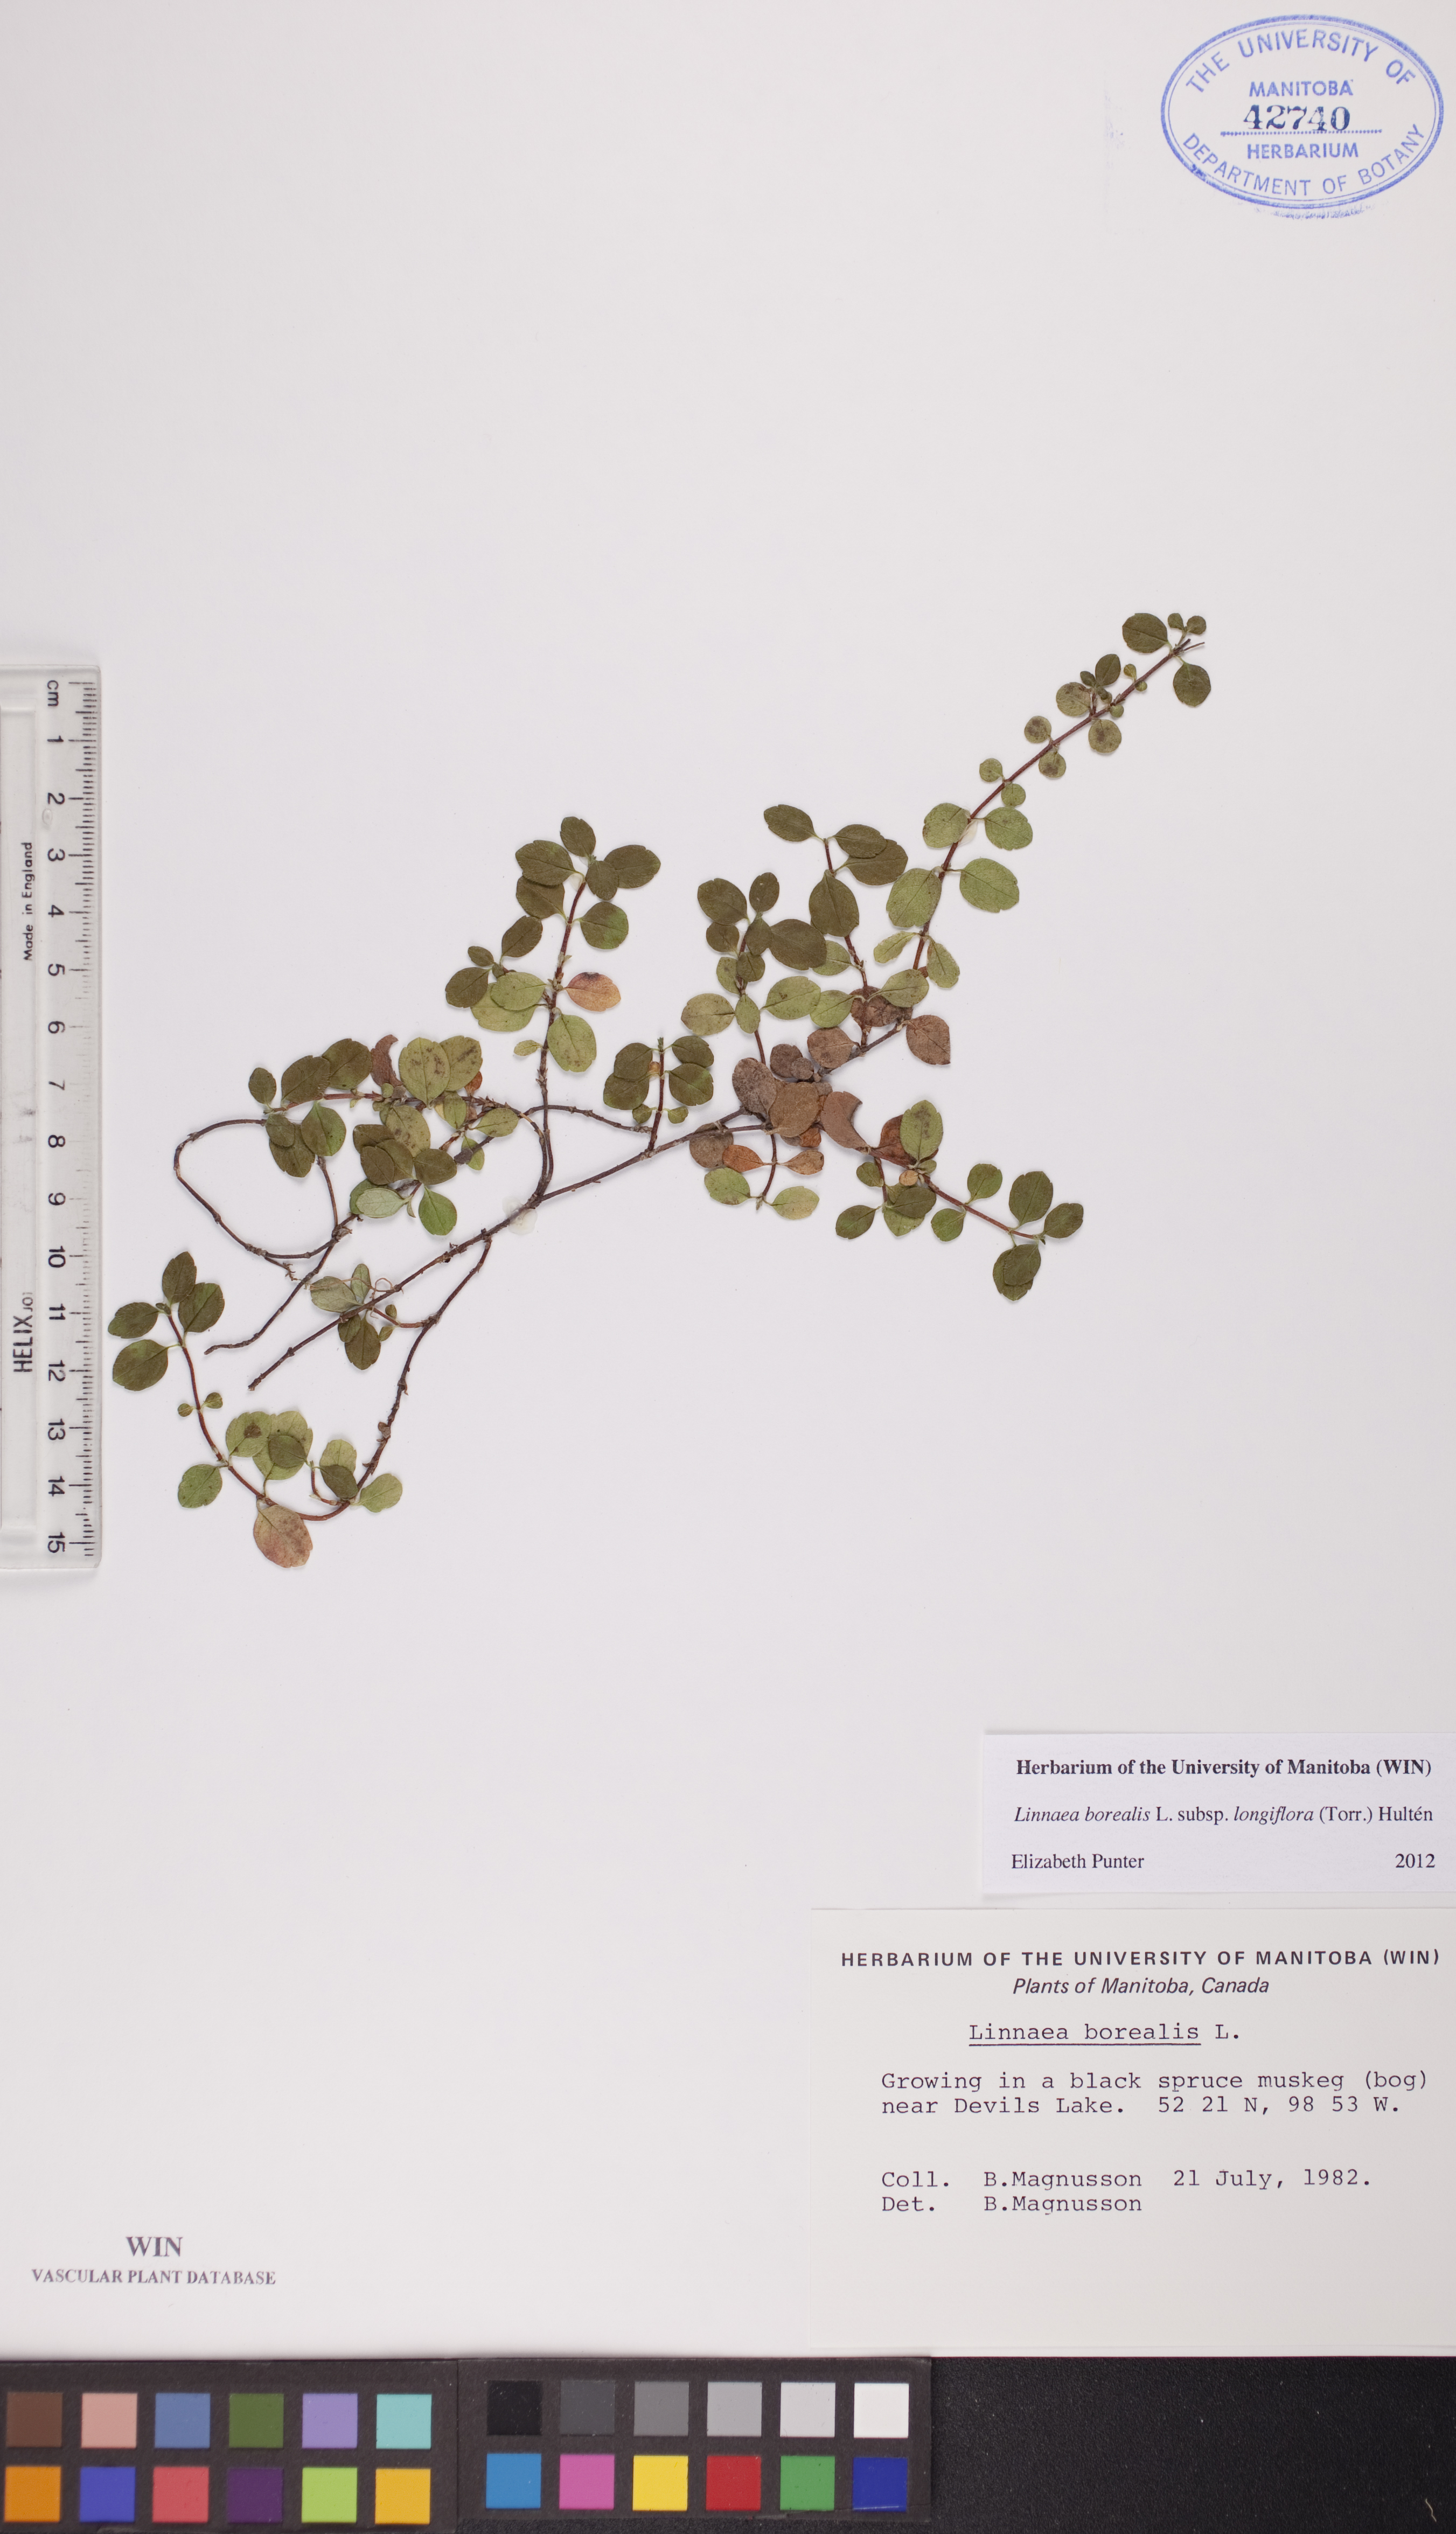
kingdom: Plantae
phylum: Tracheophyta
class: Magnoliopsida
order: Dipsacales
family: Caprifoliaceae
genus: Linnaea
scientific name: Linnaea borealis
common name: Twinflower
